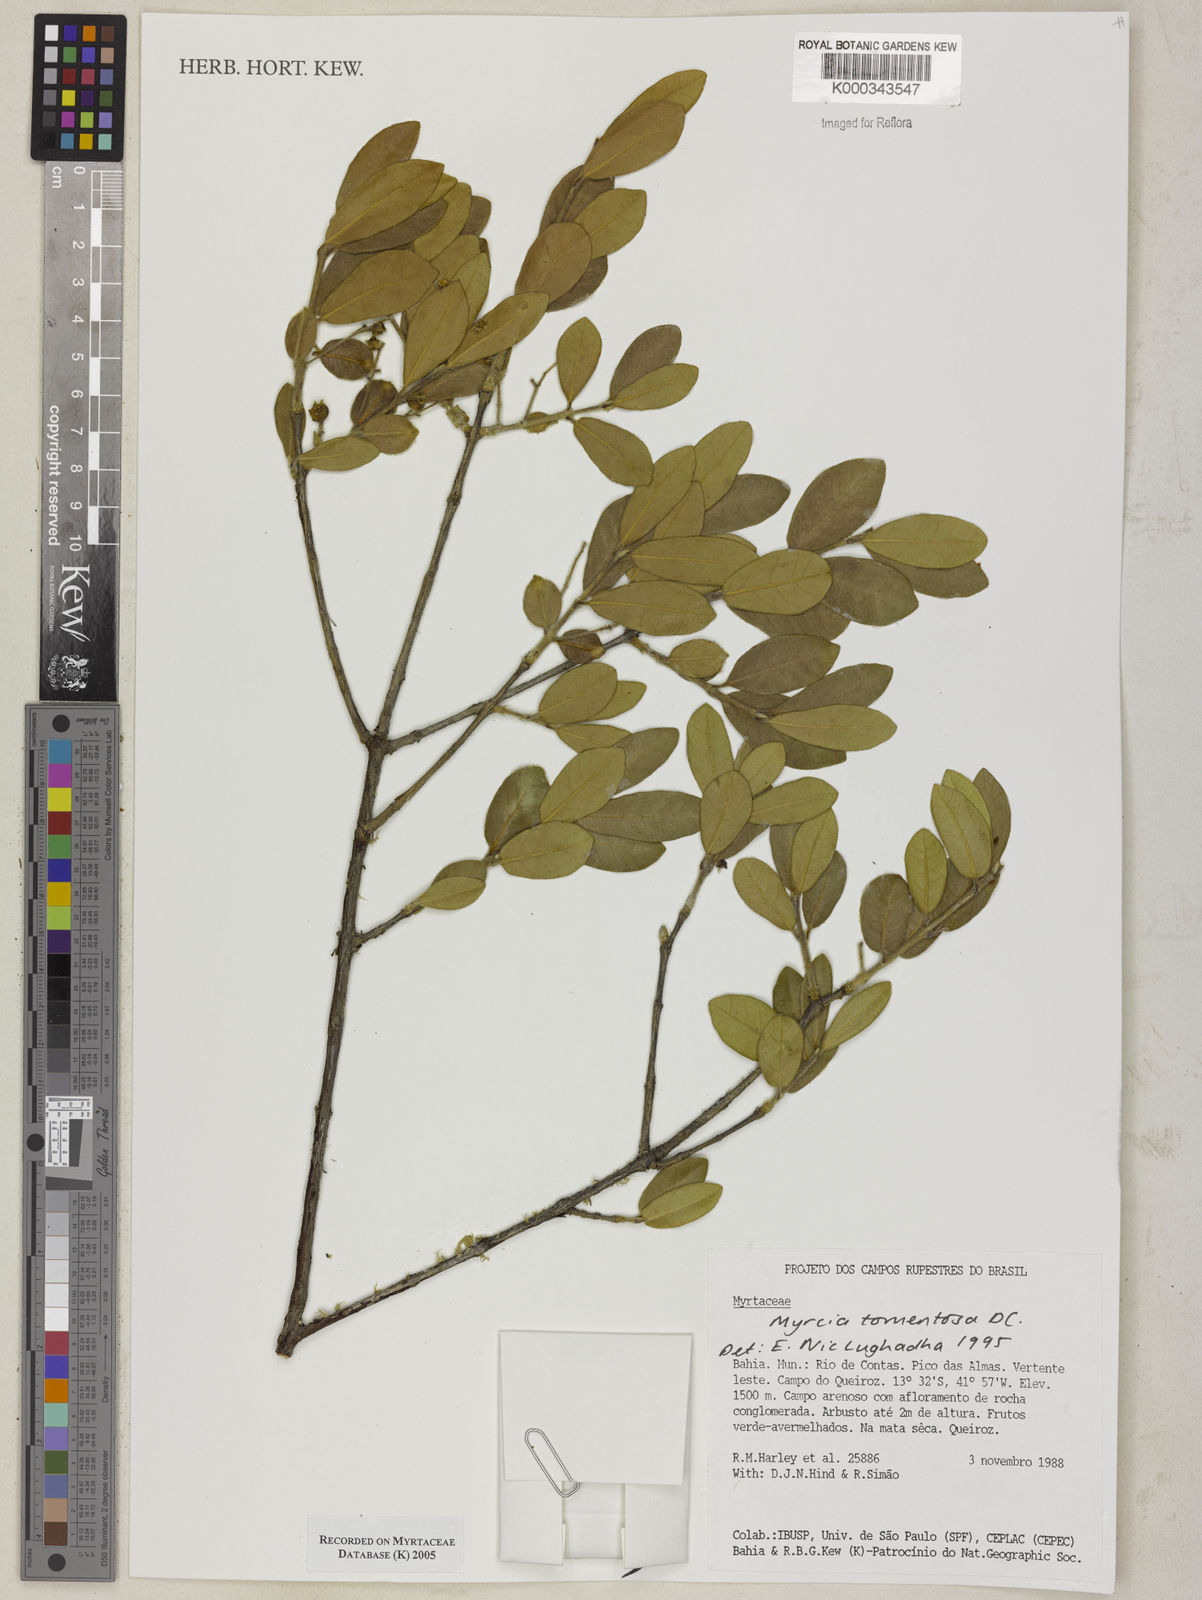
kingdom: Plantae
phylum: Tracheophyta
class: Magnoliopsida
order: Myrtales
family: Myrtaceae
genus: Myrcia
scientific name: Myrcia tomentosa
